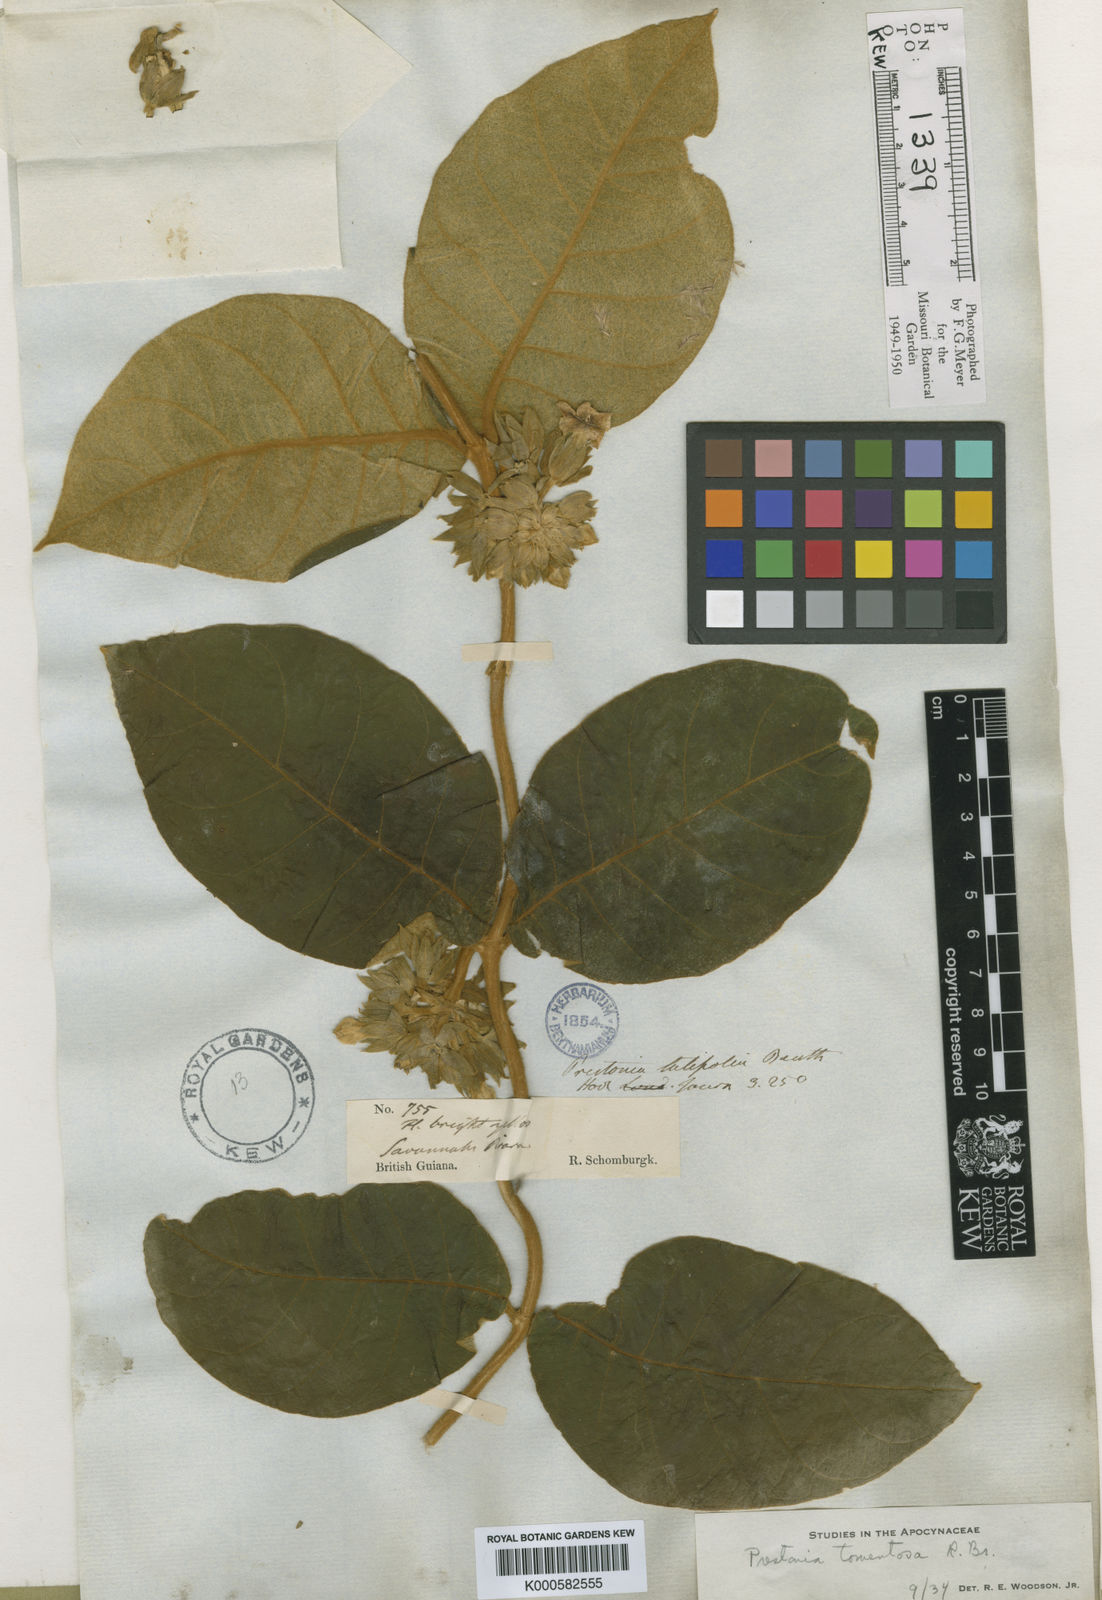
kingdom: Plantae
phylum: Tracheophyta
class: Magnoliopsida
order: Gentianales
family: Apocynaceae
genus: Prestonia
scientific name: Prestonia tomentosa
